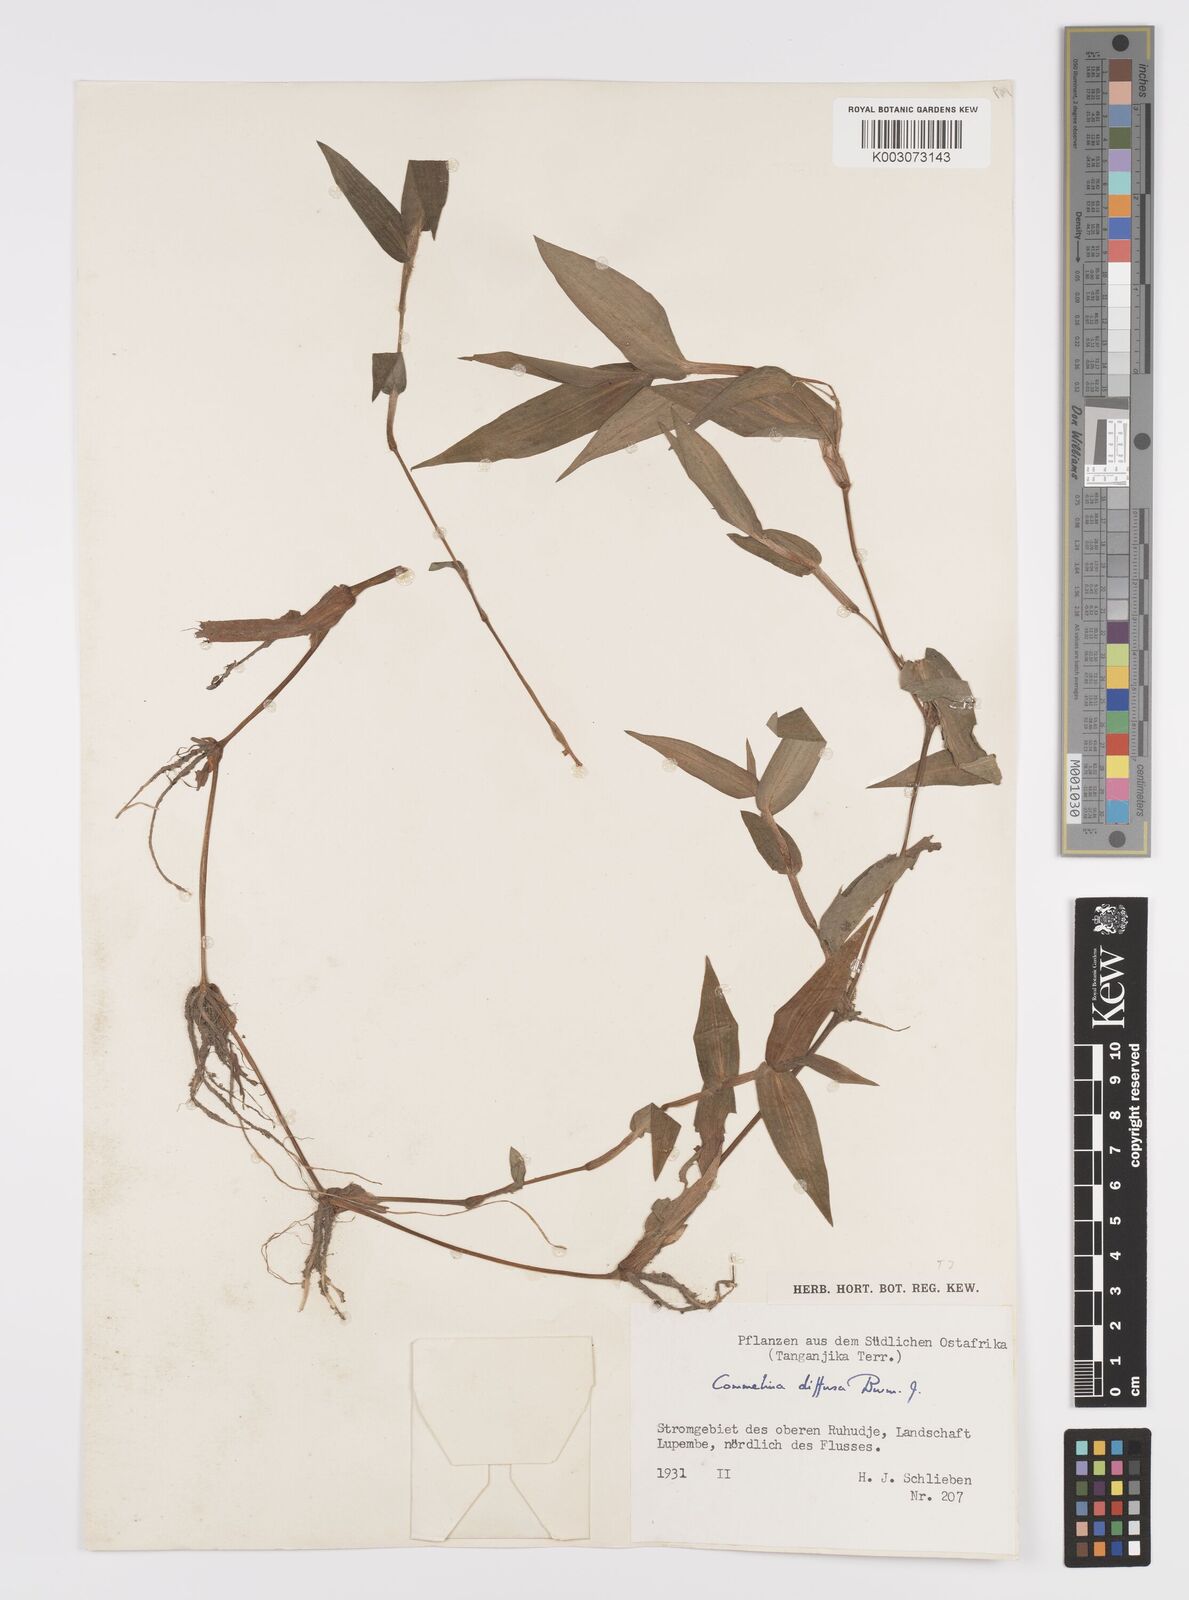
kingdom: Plantae
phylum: Tracheophyta
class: Liliopsida
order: Commelinales
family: Commelinaceae
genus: Commelina
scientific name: Commelina diffusa
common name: Climbing dayflower
